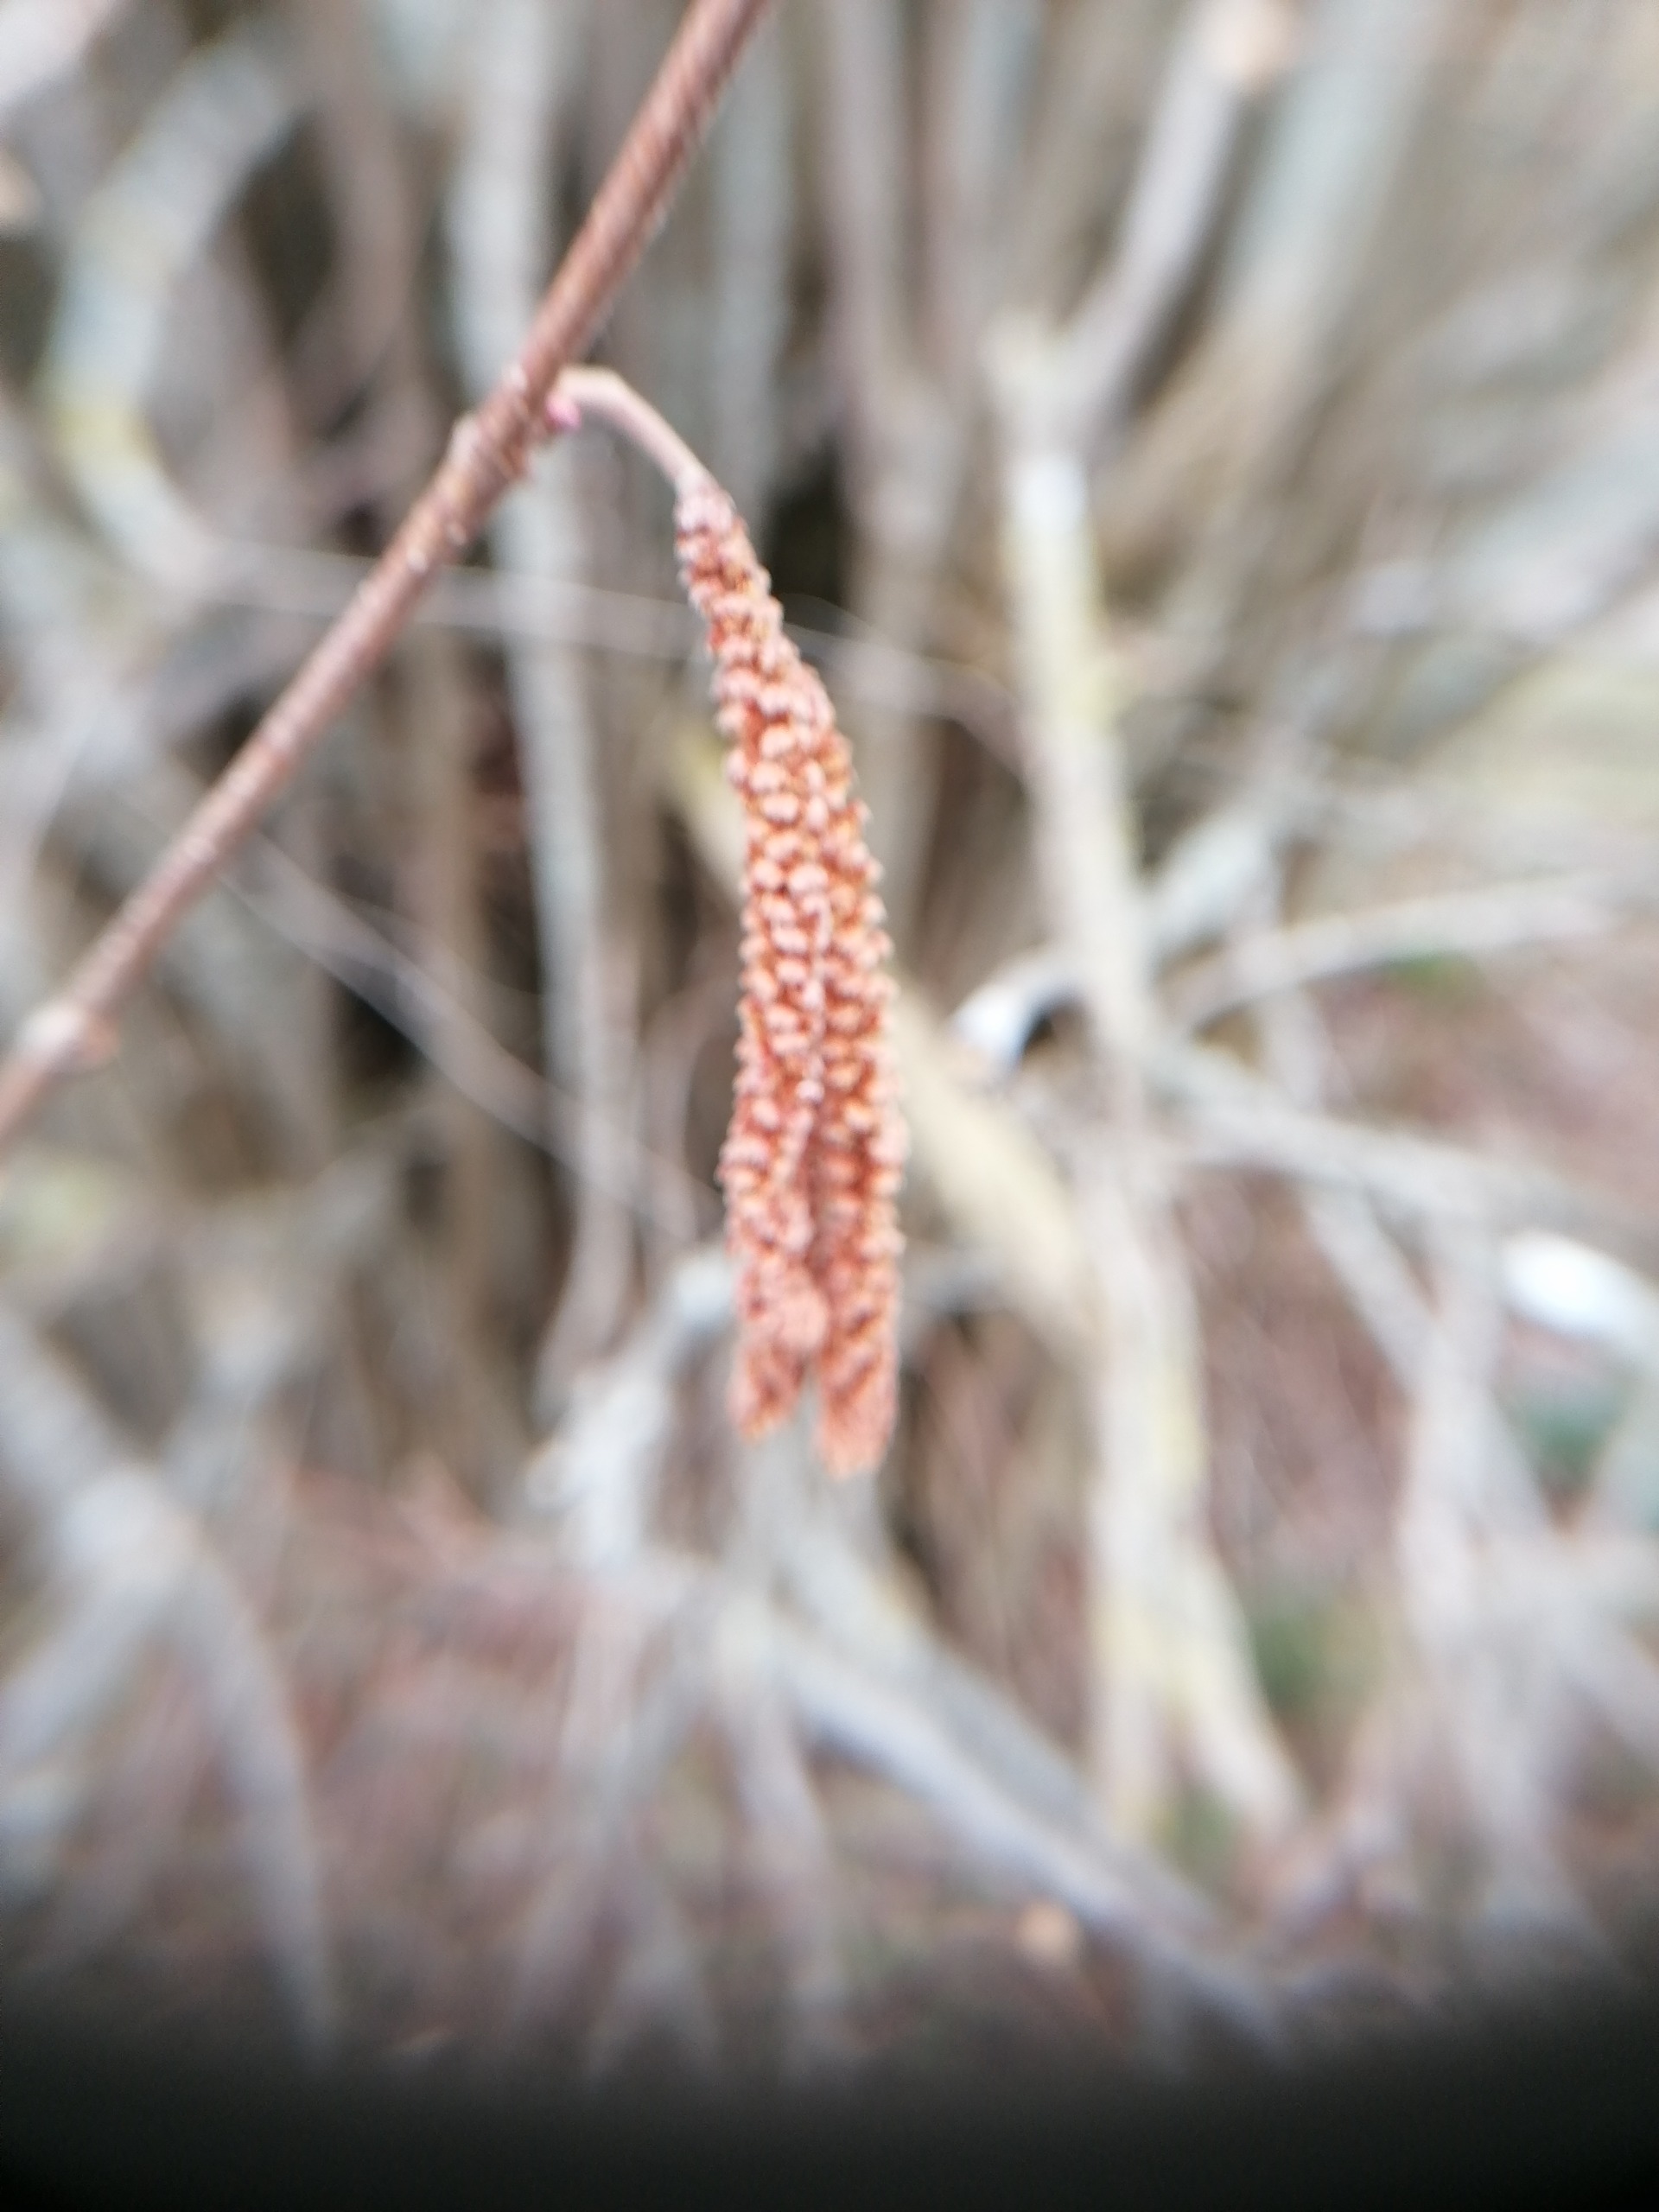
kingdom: Plantae
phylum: Tracheophyta
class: Magnoliopsida
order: Fagales
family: Betulaceae
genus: Corylus
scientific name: Corylus avellana
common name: Hassel
